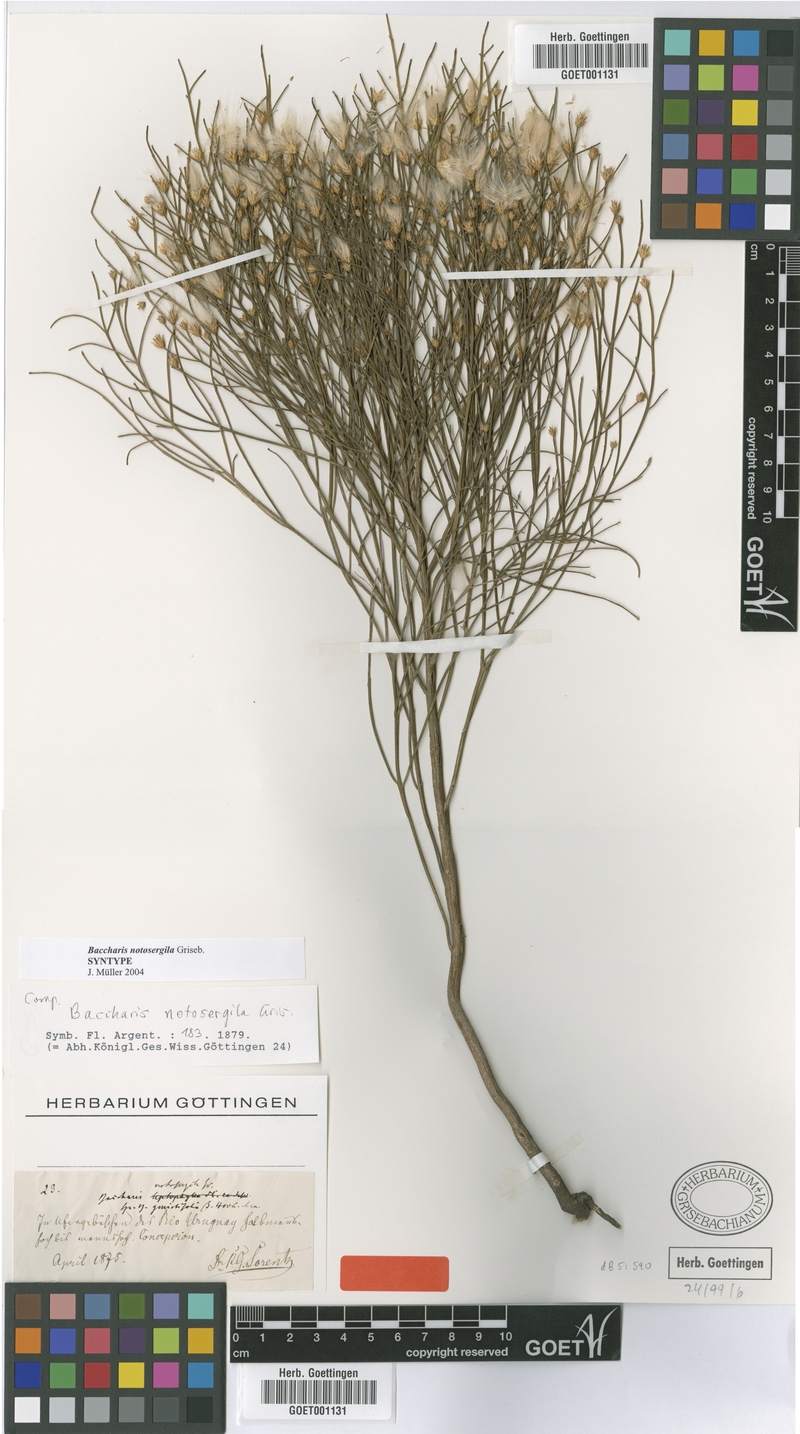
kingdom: Plantae
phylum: Tracheophyta
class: Magnoliopsida
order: Asterales
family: Asteraceae
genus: Baccharis
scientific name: Baccharis notosergila
